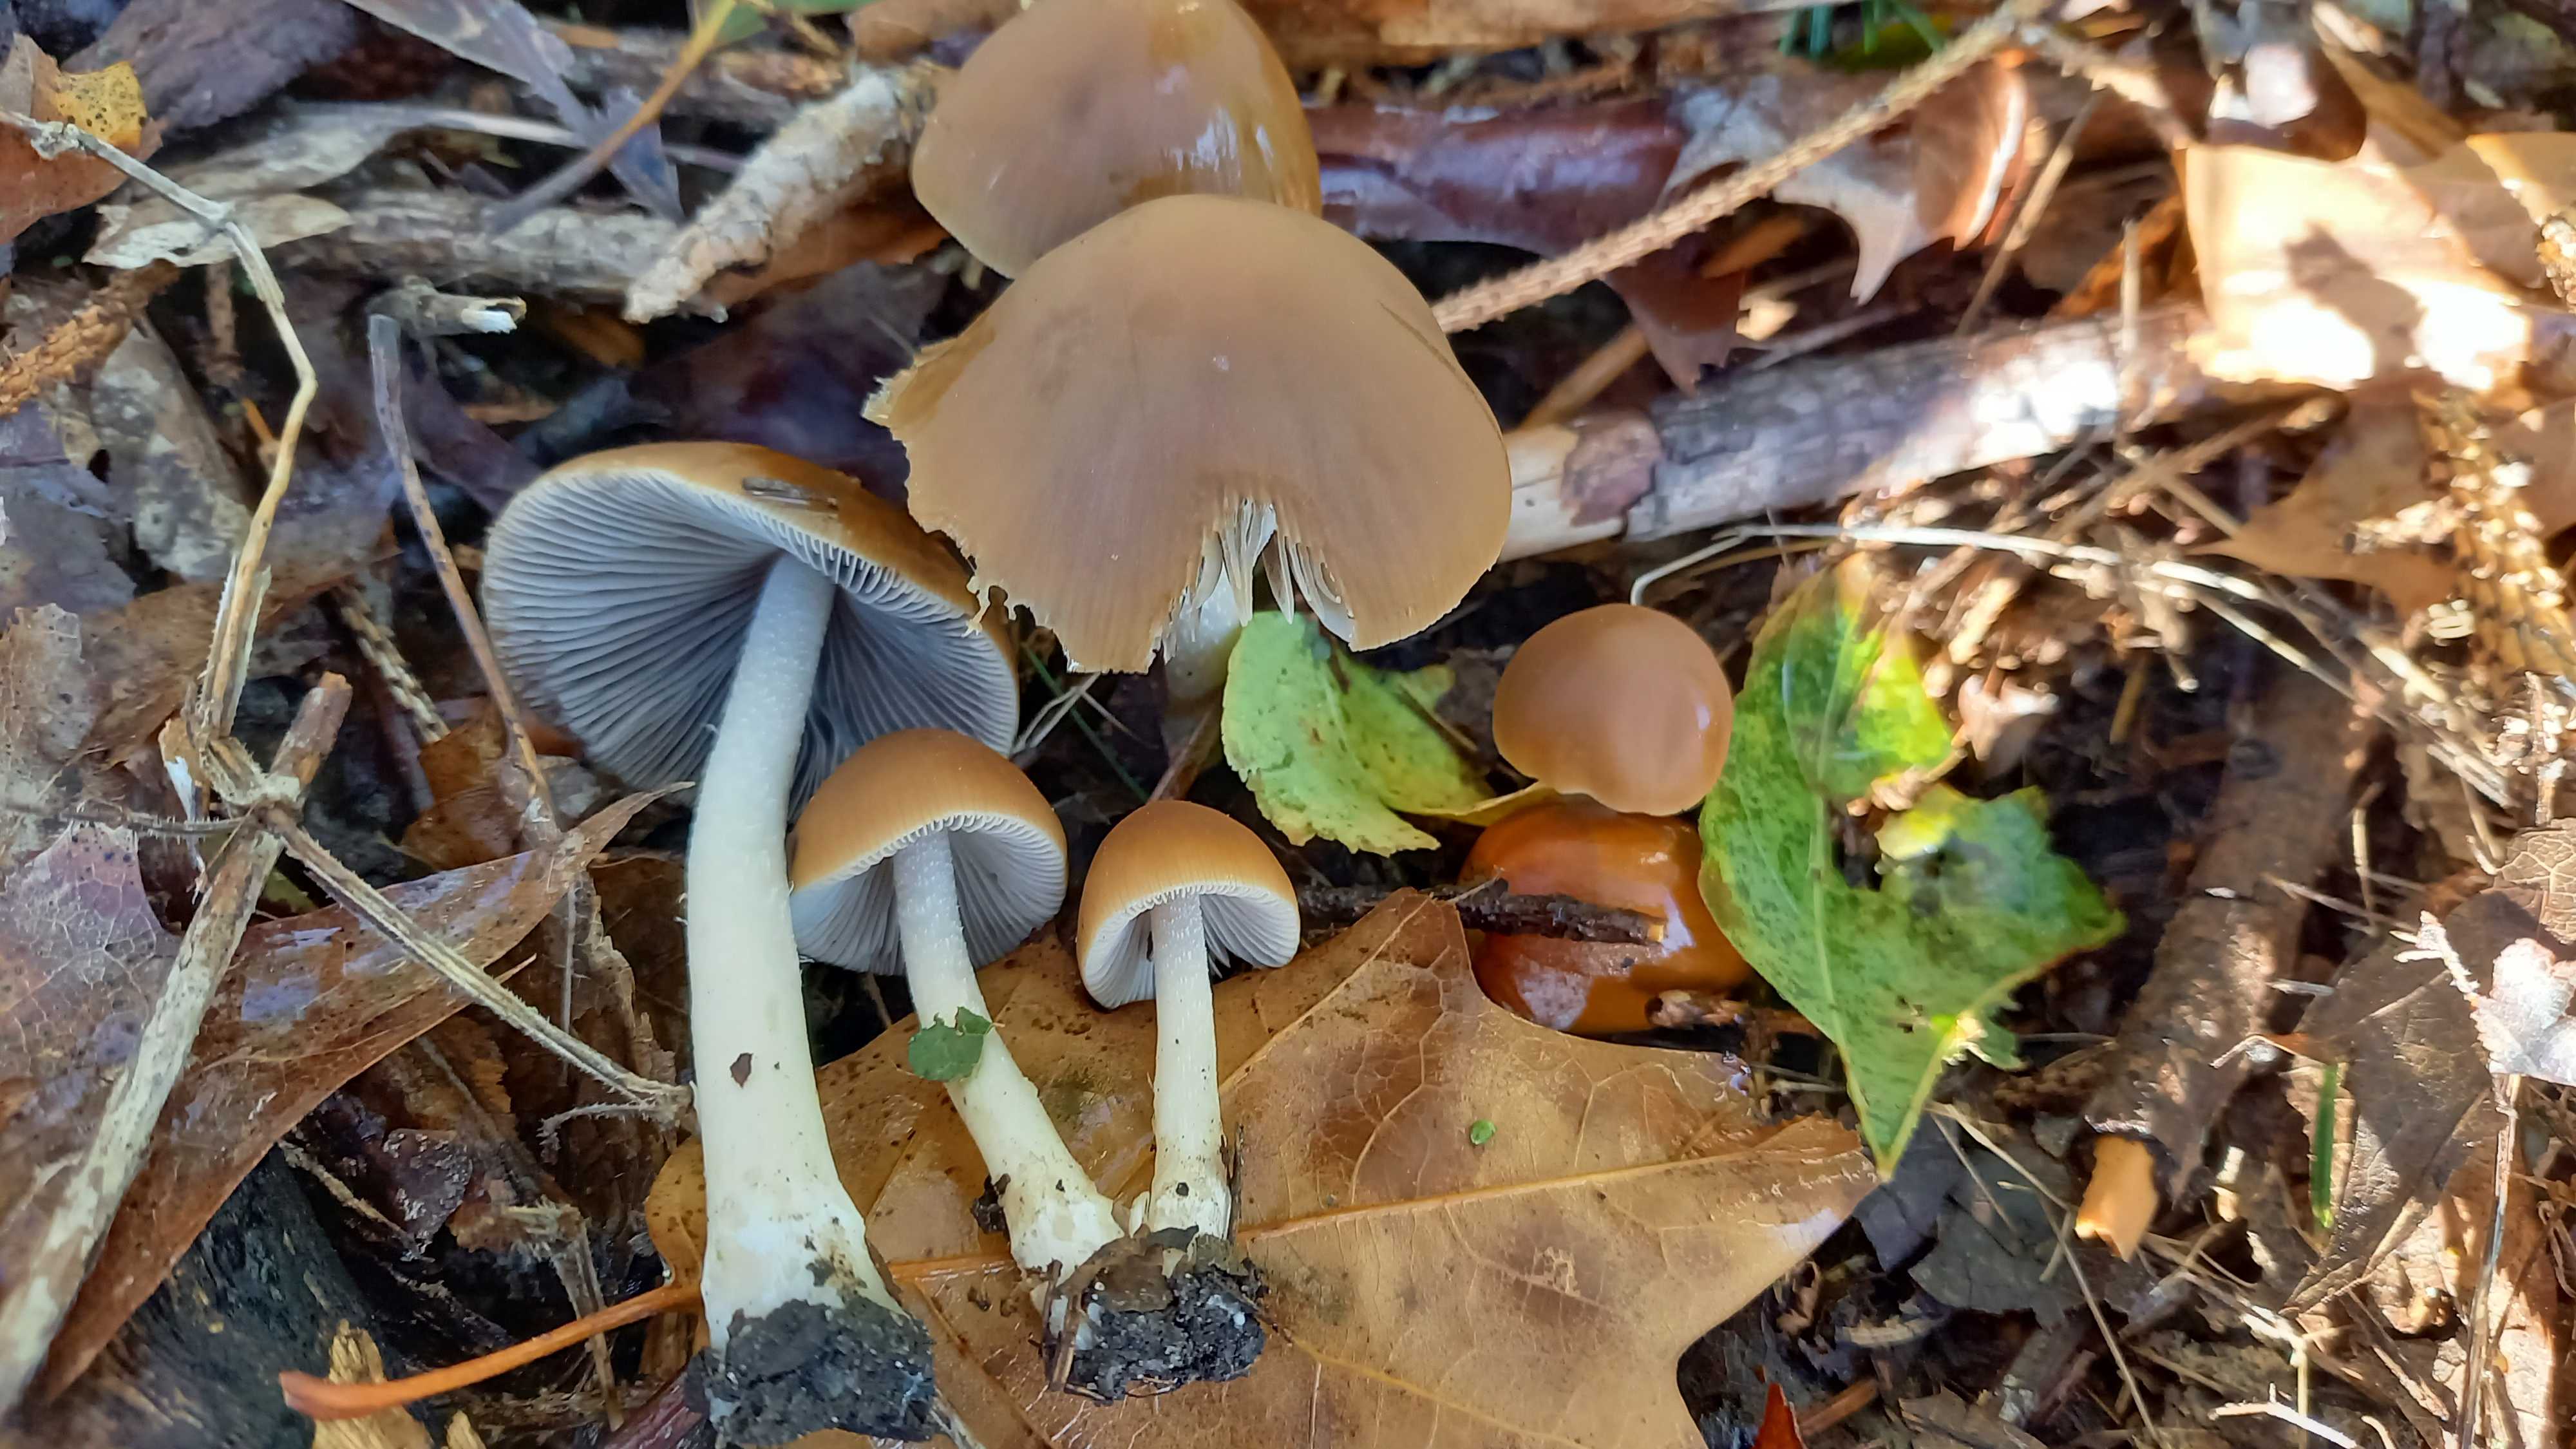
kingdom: Fungi
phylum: Basidiomycota
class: Agaricomycetes
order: Agaricales
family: Psathyrellaceae
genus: Psathyrella
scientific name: Psathyrella fusca
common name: gråbladet mørkhat
